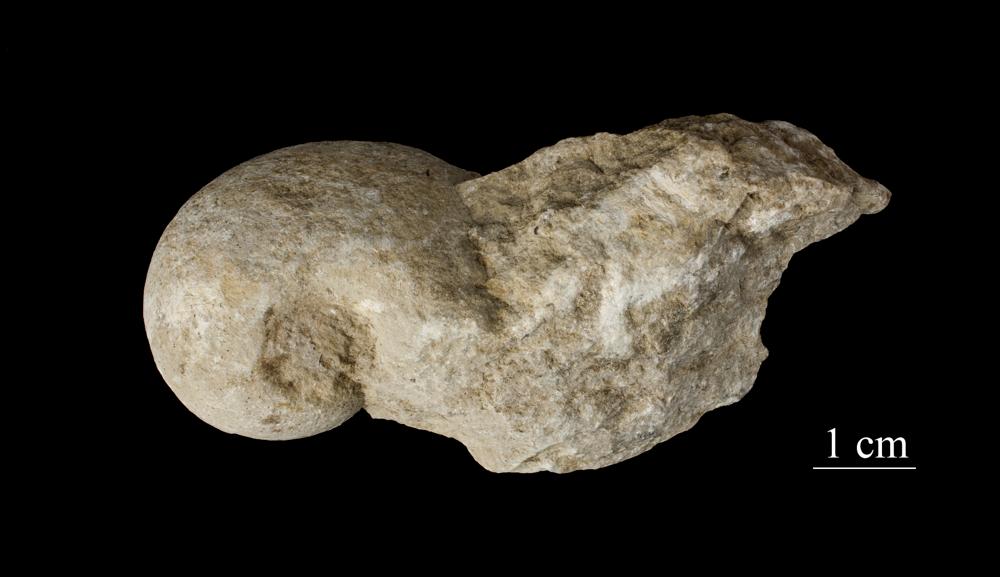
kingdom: Animalia
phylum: Mollusca
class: Gastropoda
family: Bucaniidae
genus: Salpingostoma
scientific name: Salpingostoma Bellerophon megalostoma
